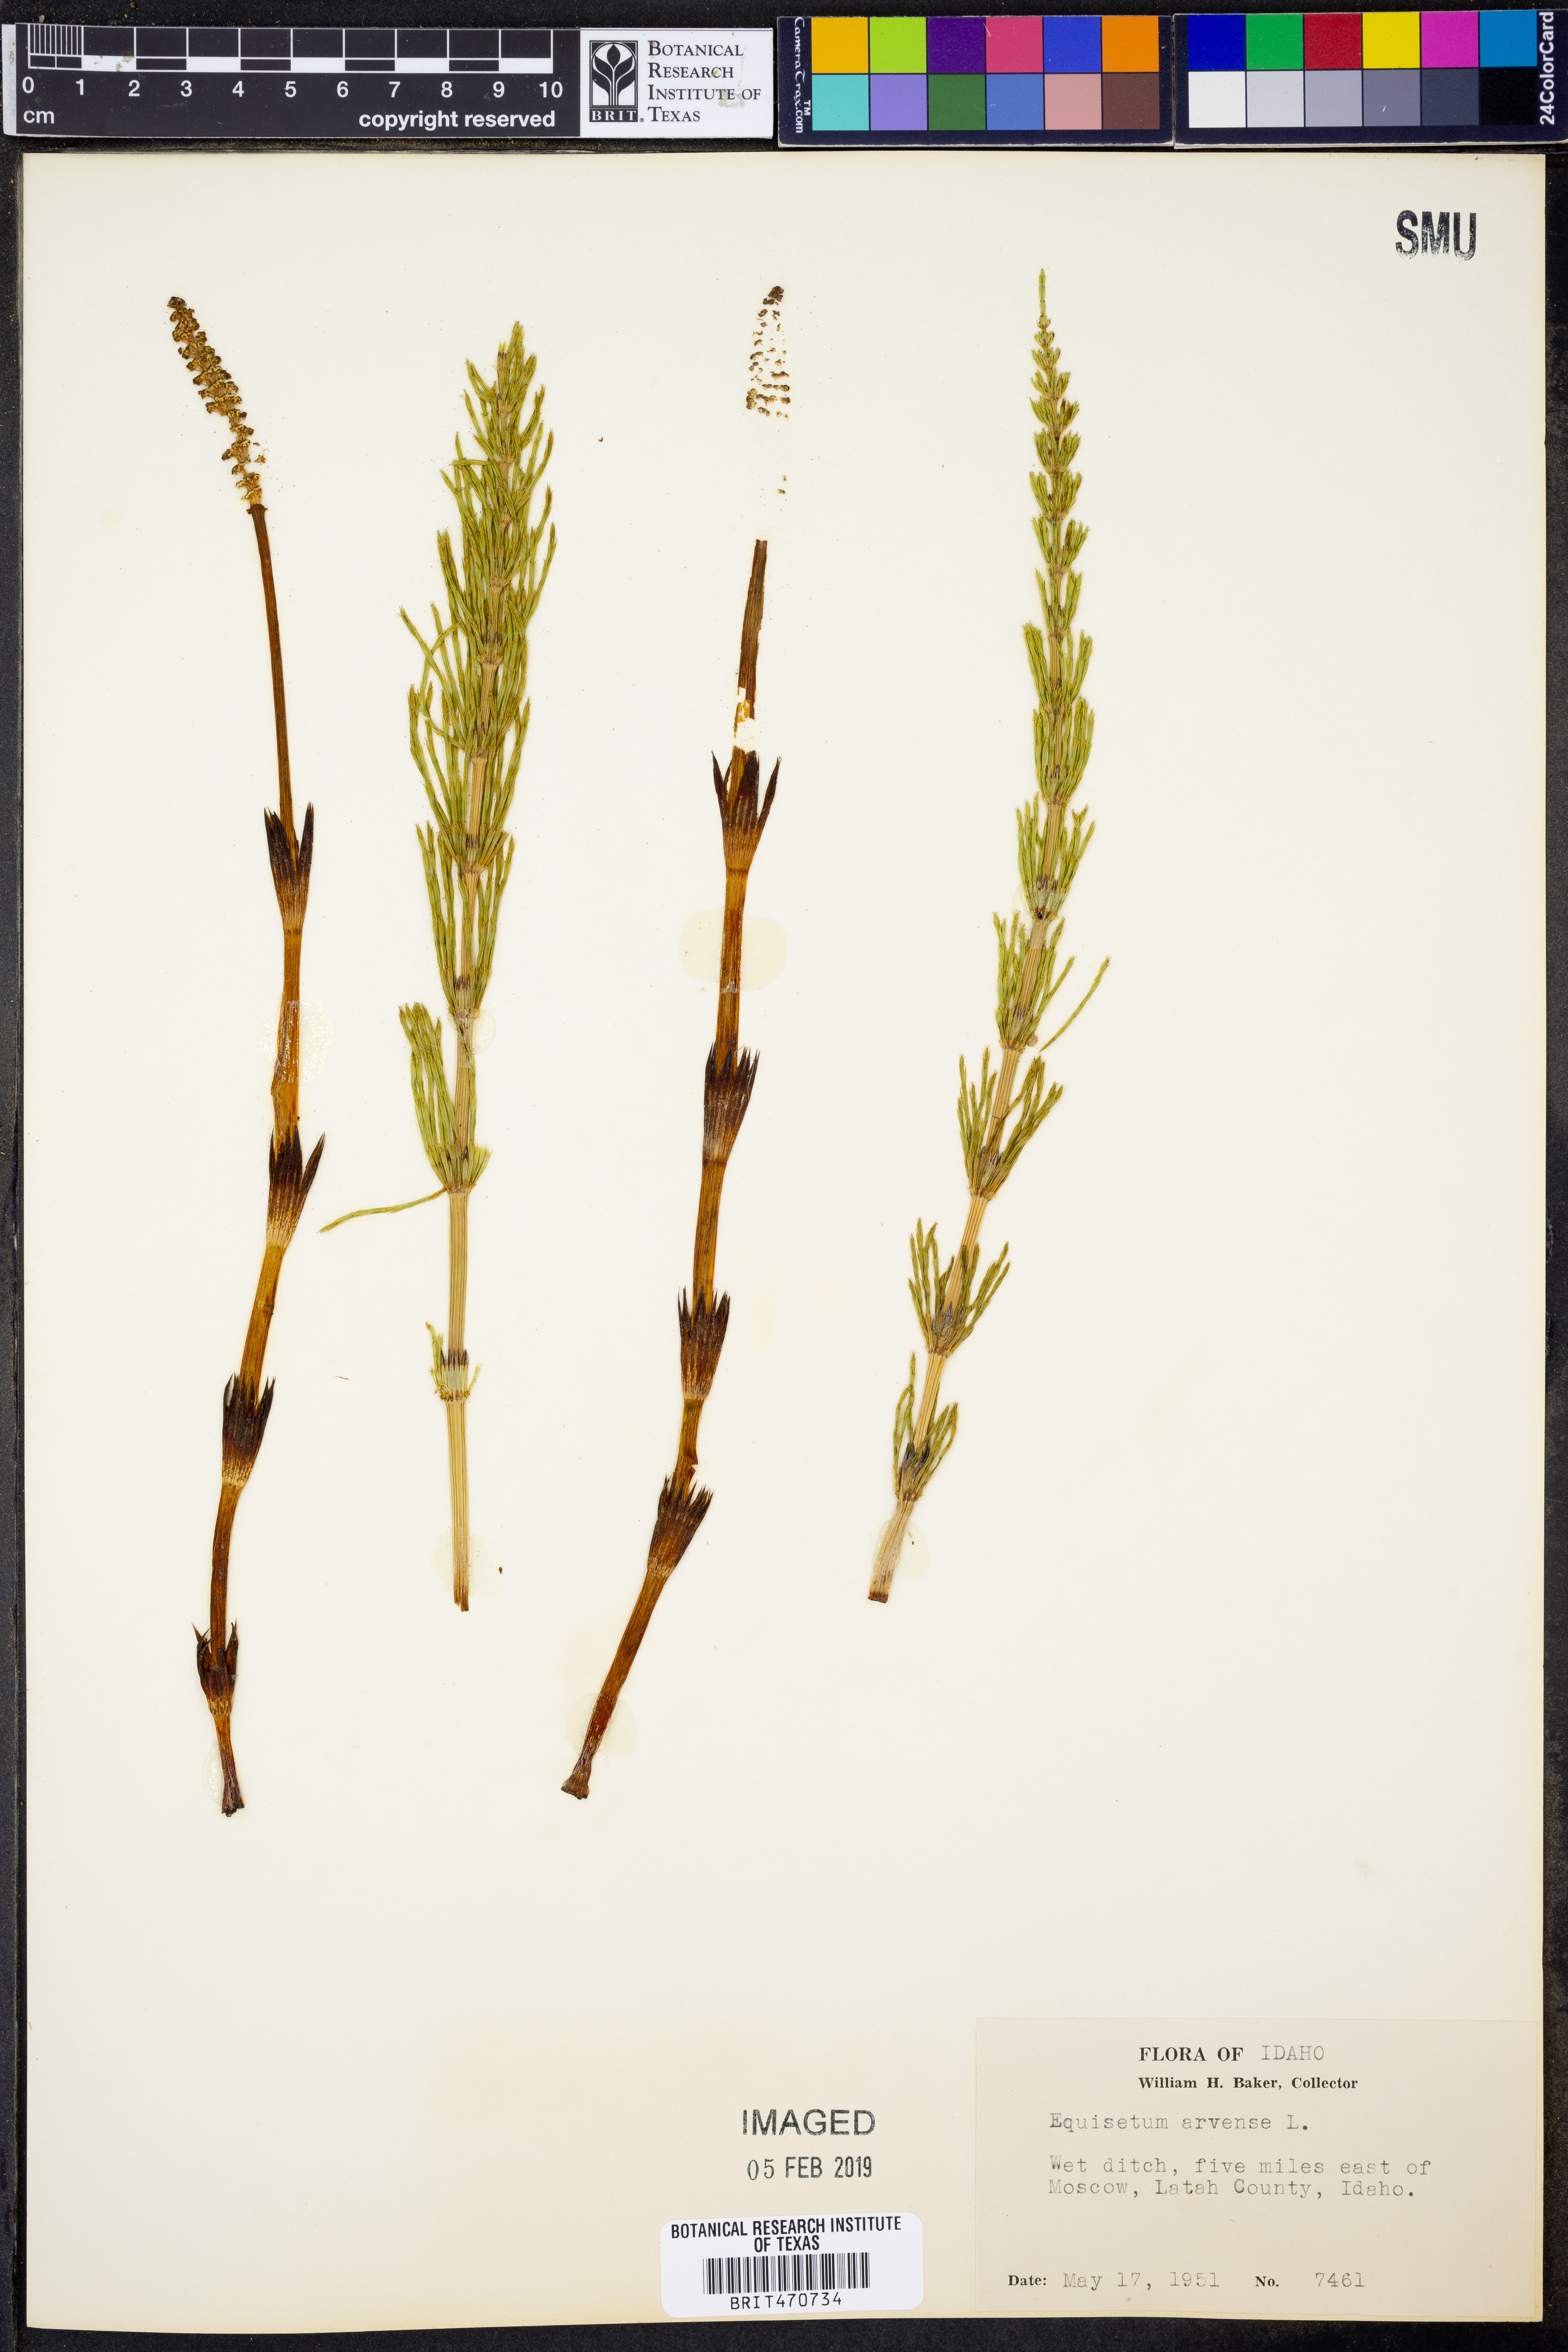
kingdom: Plantae
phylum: Tracheophyta
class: Polypodiopsida
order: Equisetales
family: Equisetaceae
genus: Equisetum
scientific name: Equisetum arvense
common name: Field horsetail
